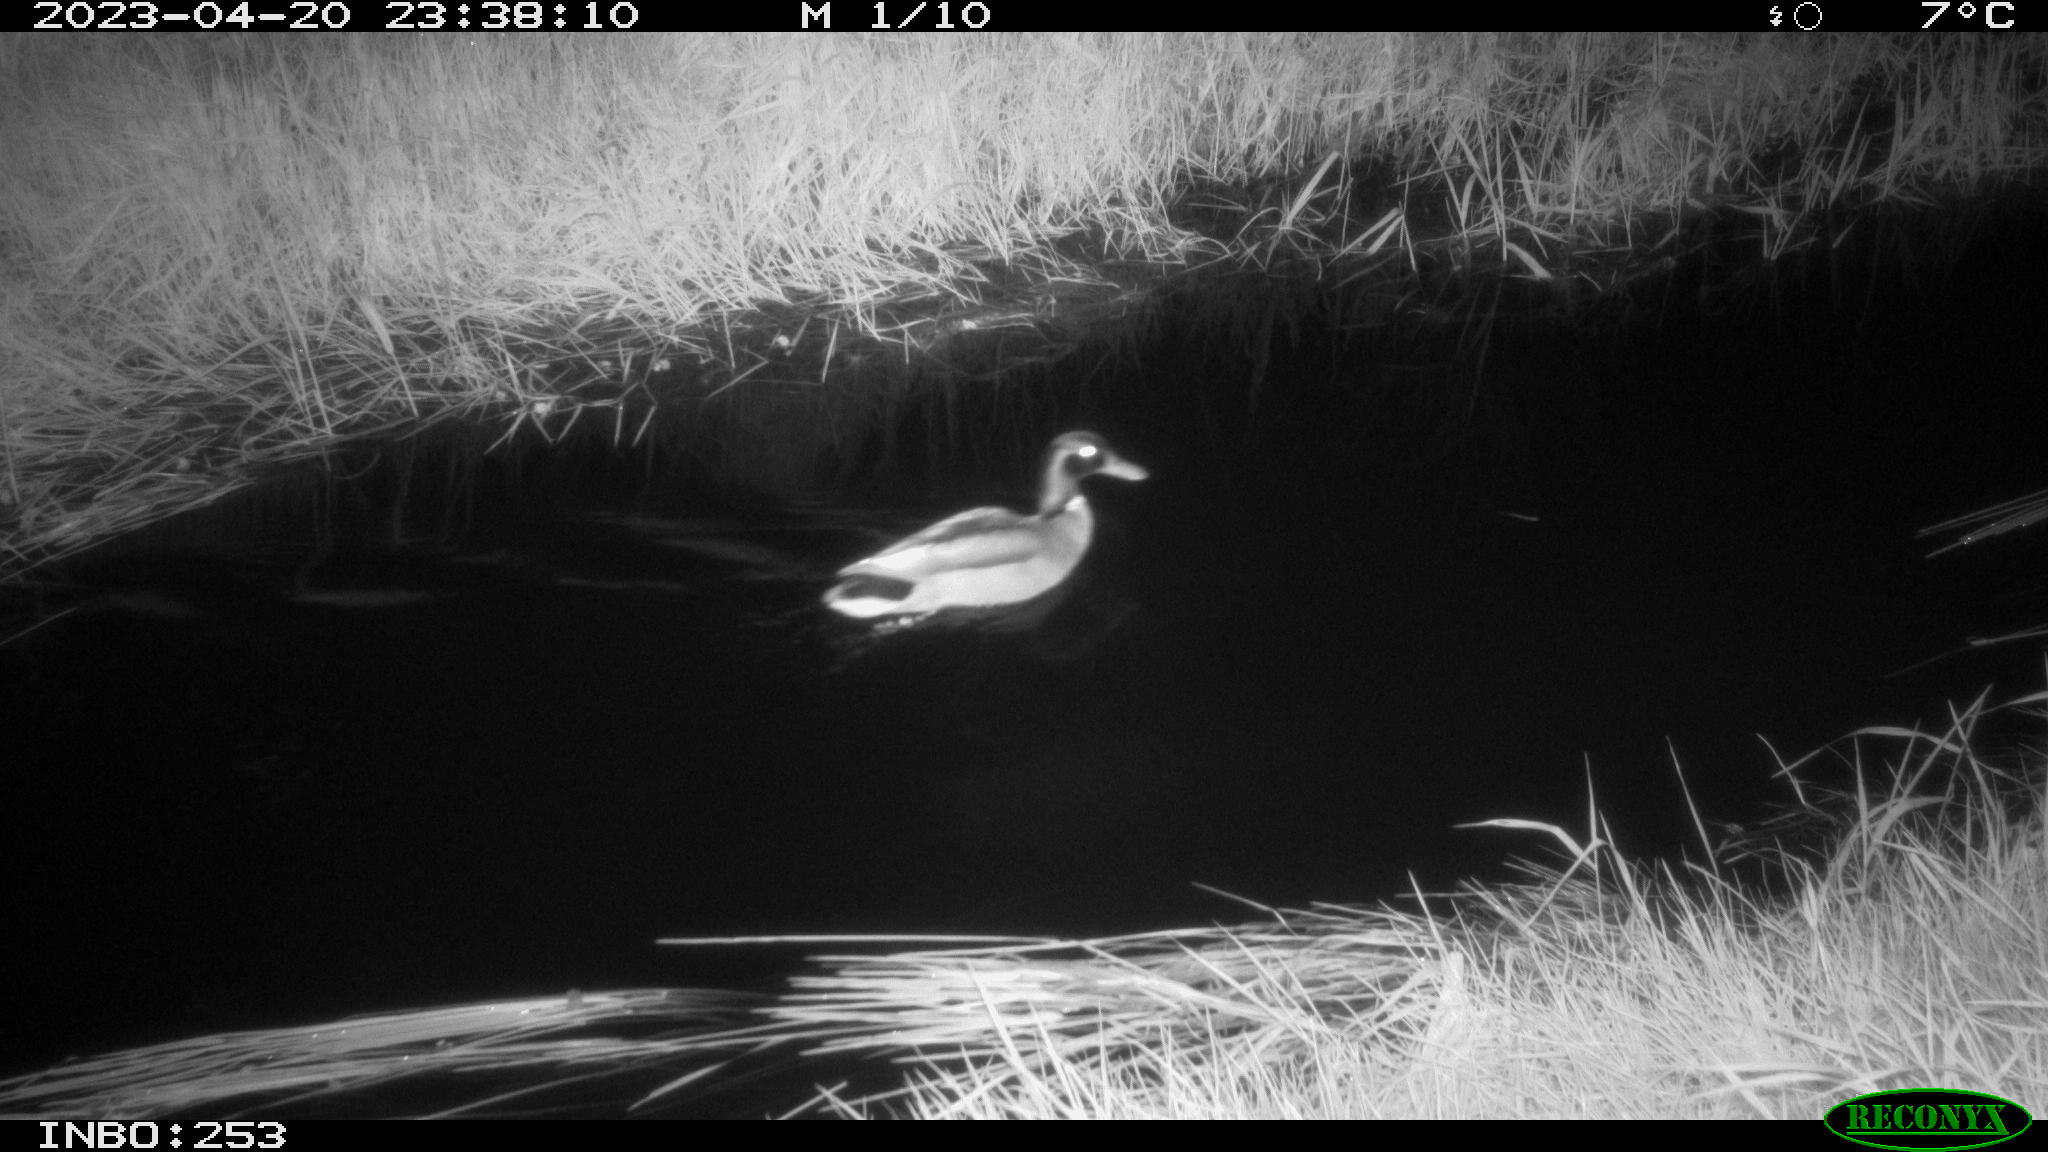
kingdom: Animalia
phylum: Chordata
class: Aves
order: Anseriformes
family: Anatidae
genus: Anas
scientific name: Anas
